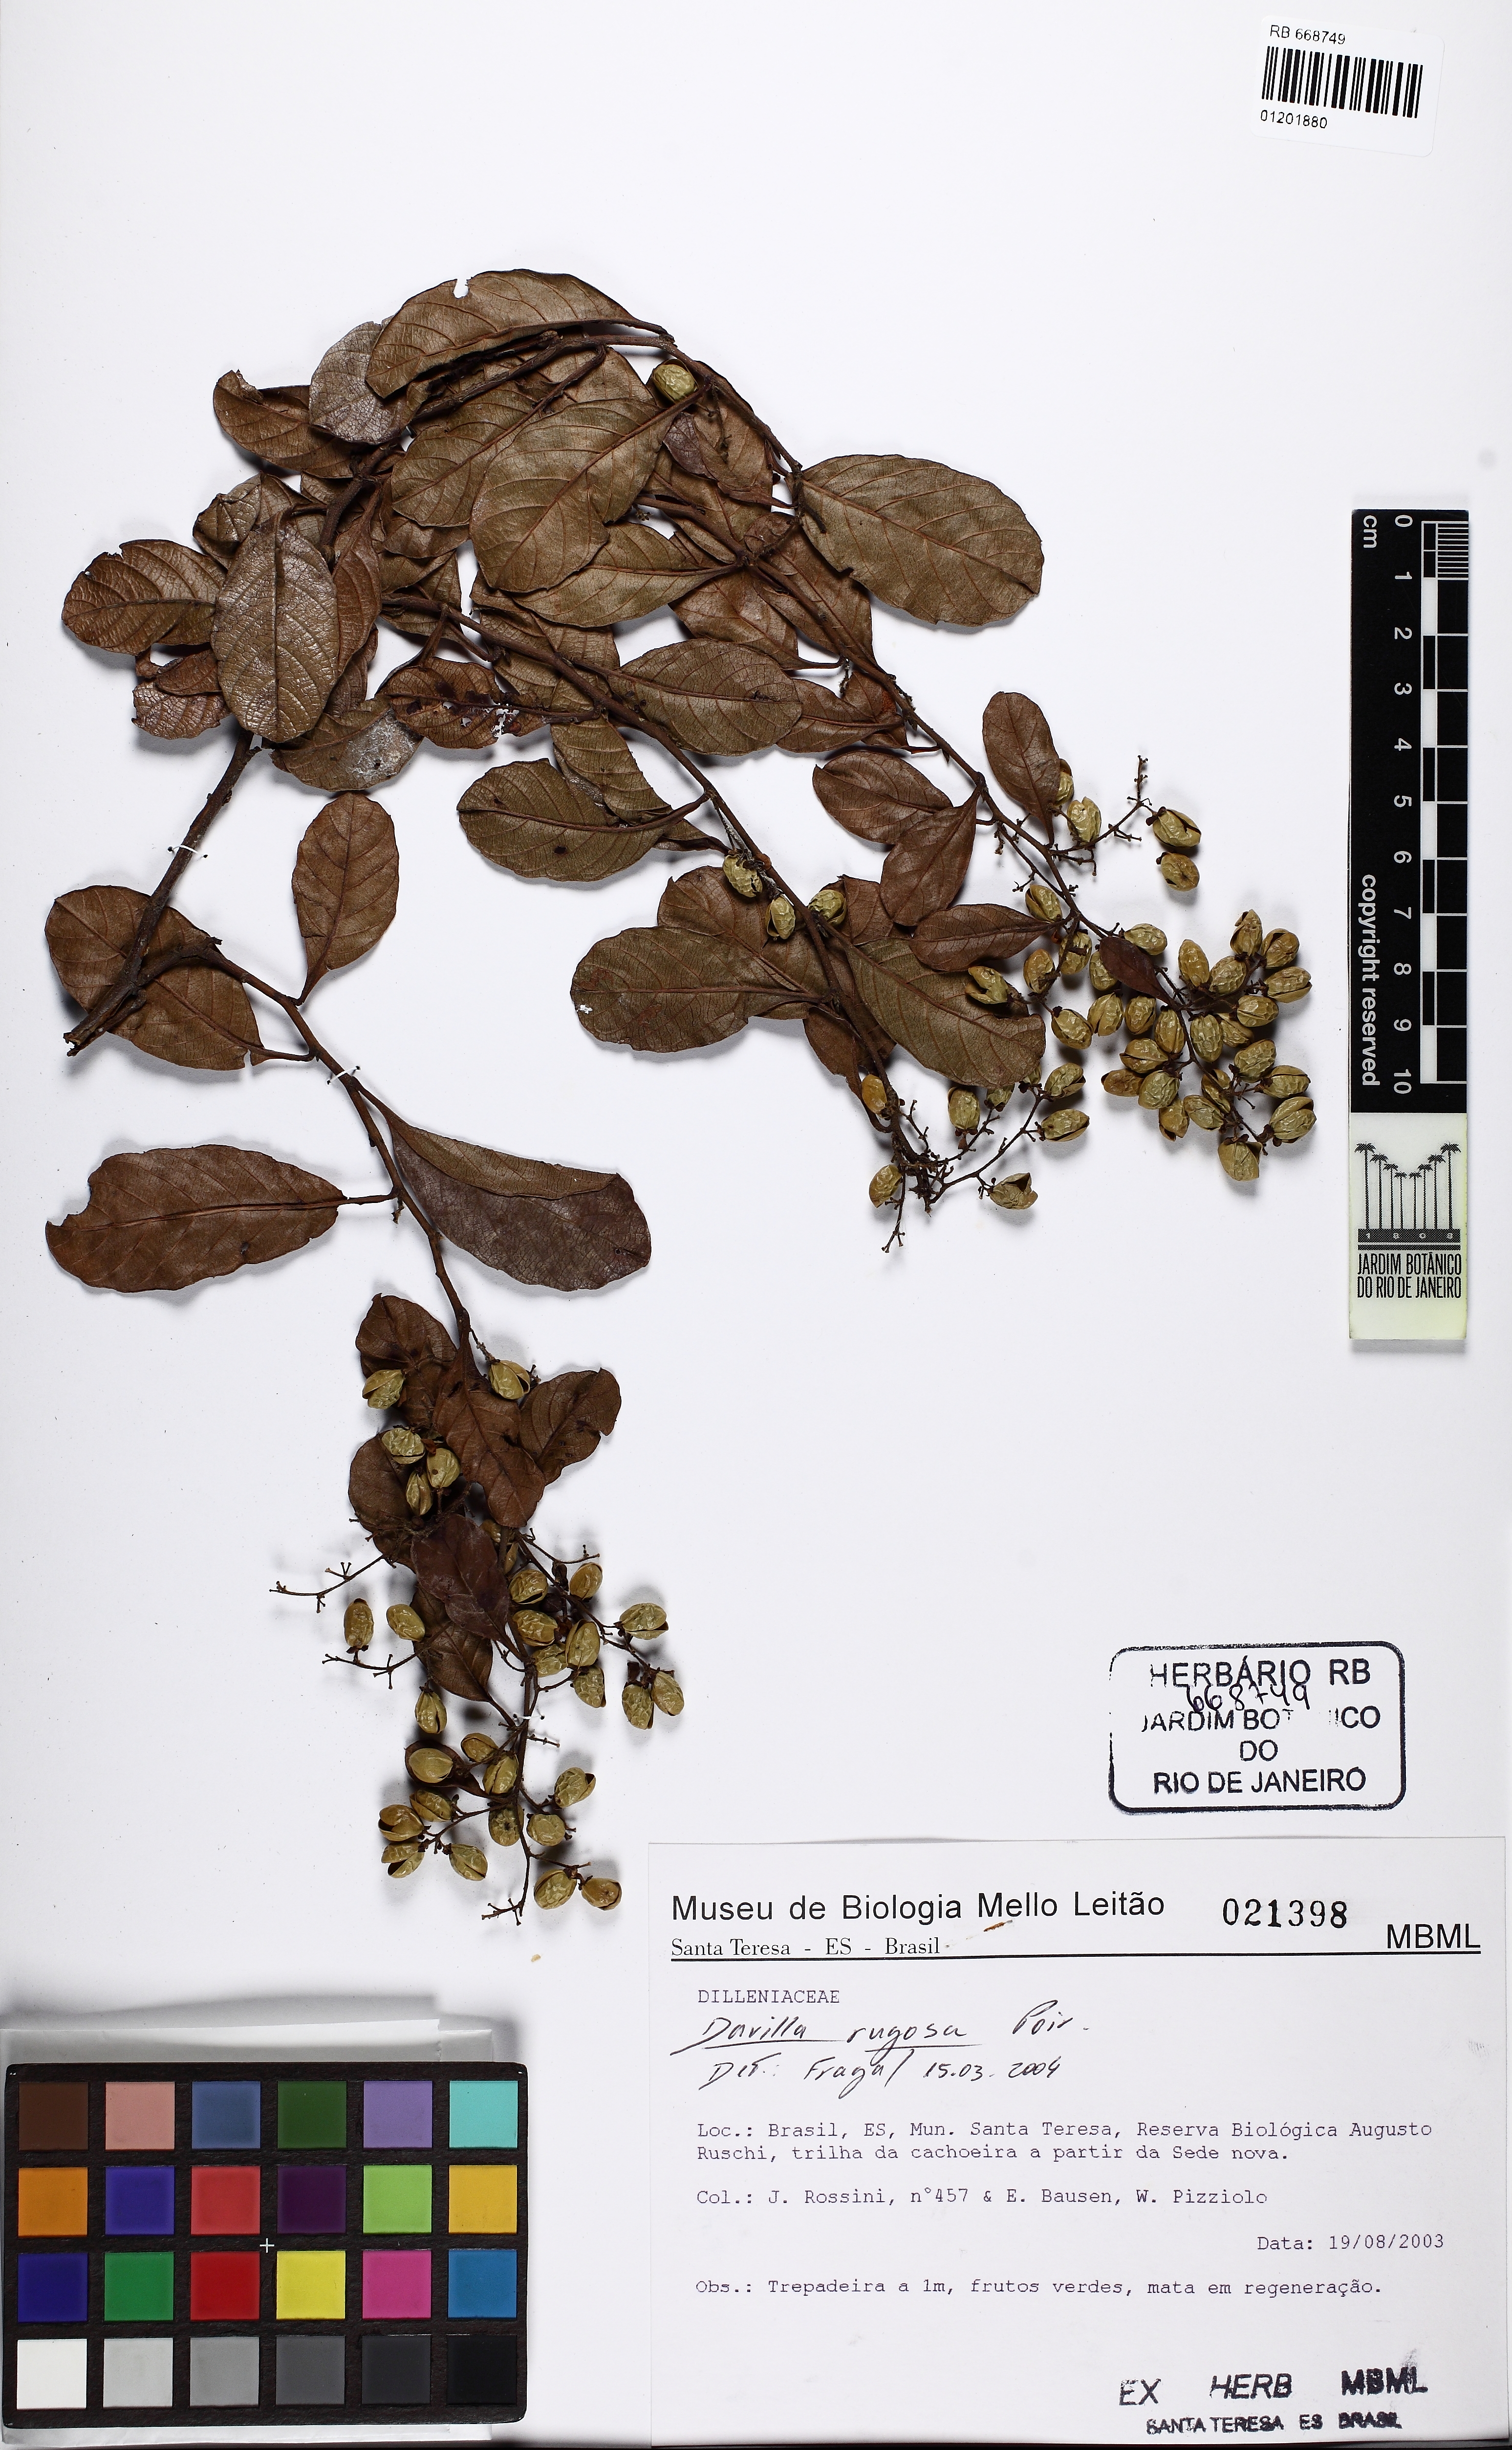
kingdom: Plantae
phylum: Tracheophyta
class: Magnoliopsida
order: Dilleniales
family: Dilleniaceae
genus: Davilla
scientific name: Davilla rugosa
